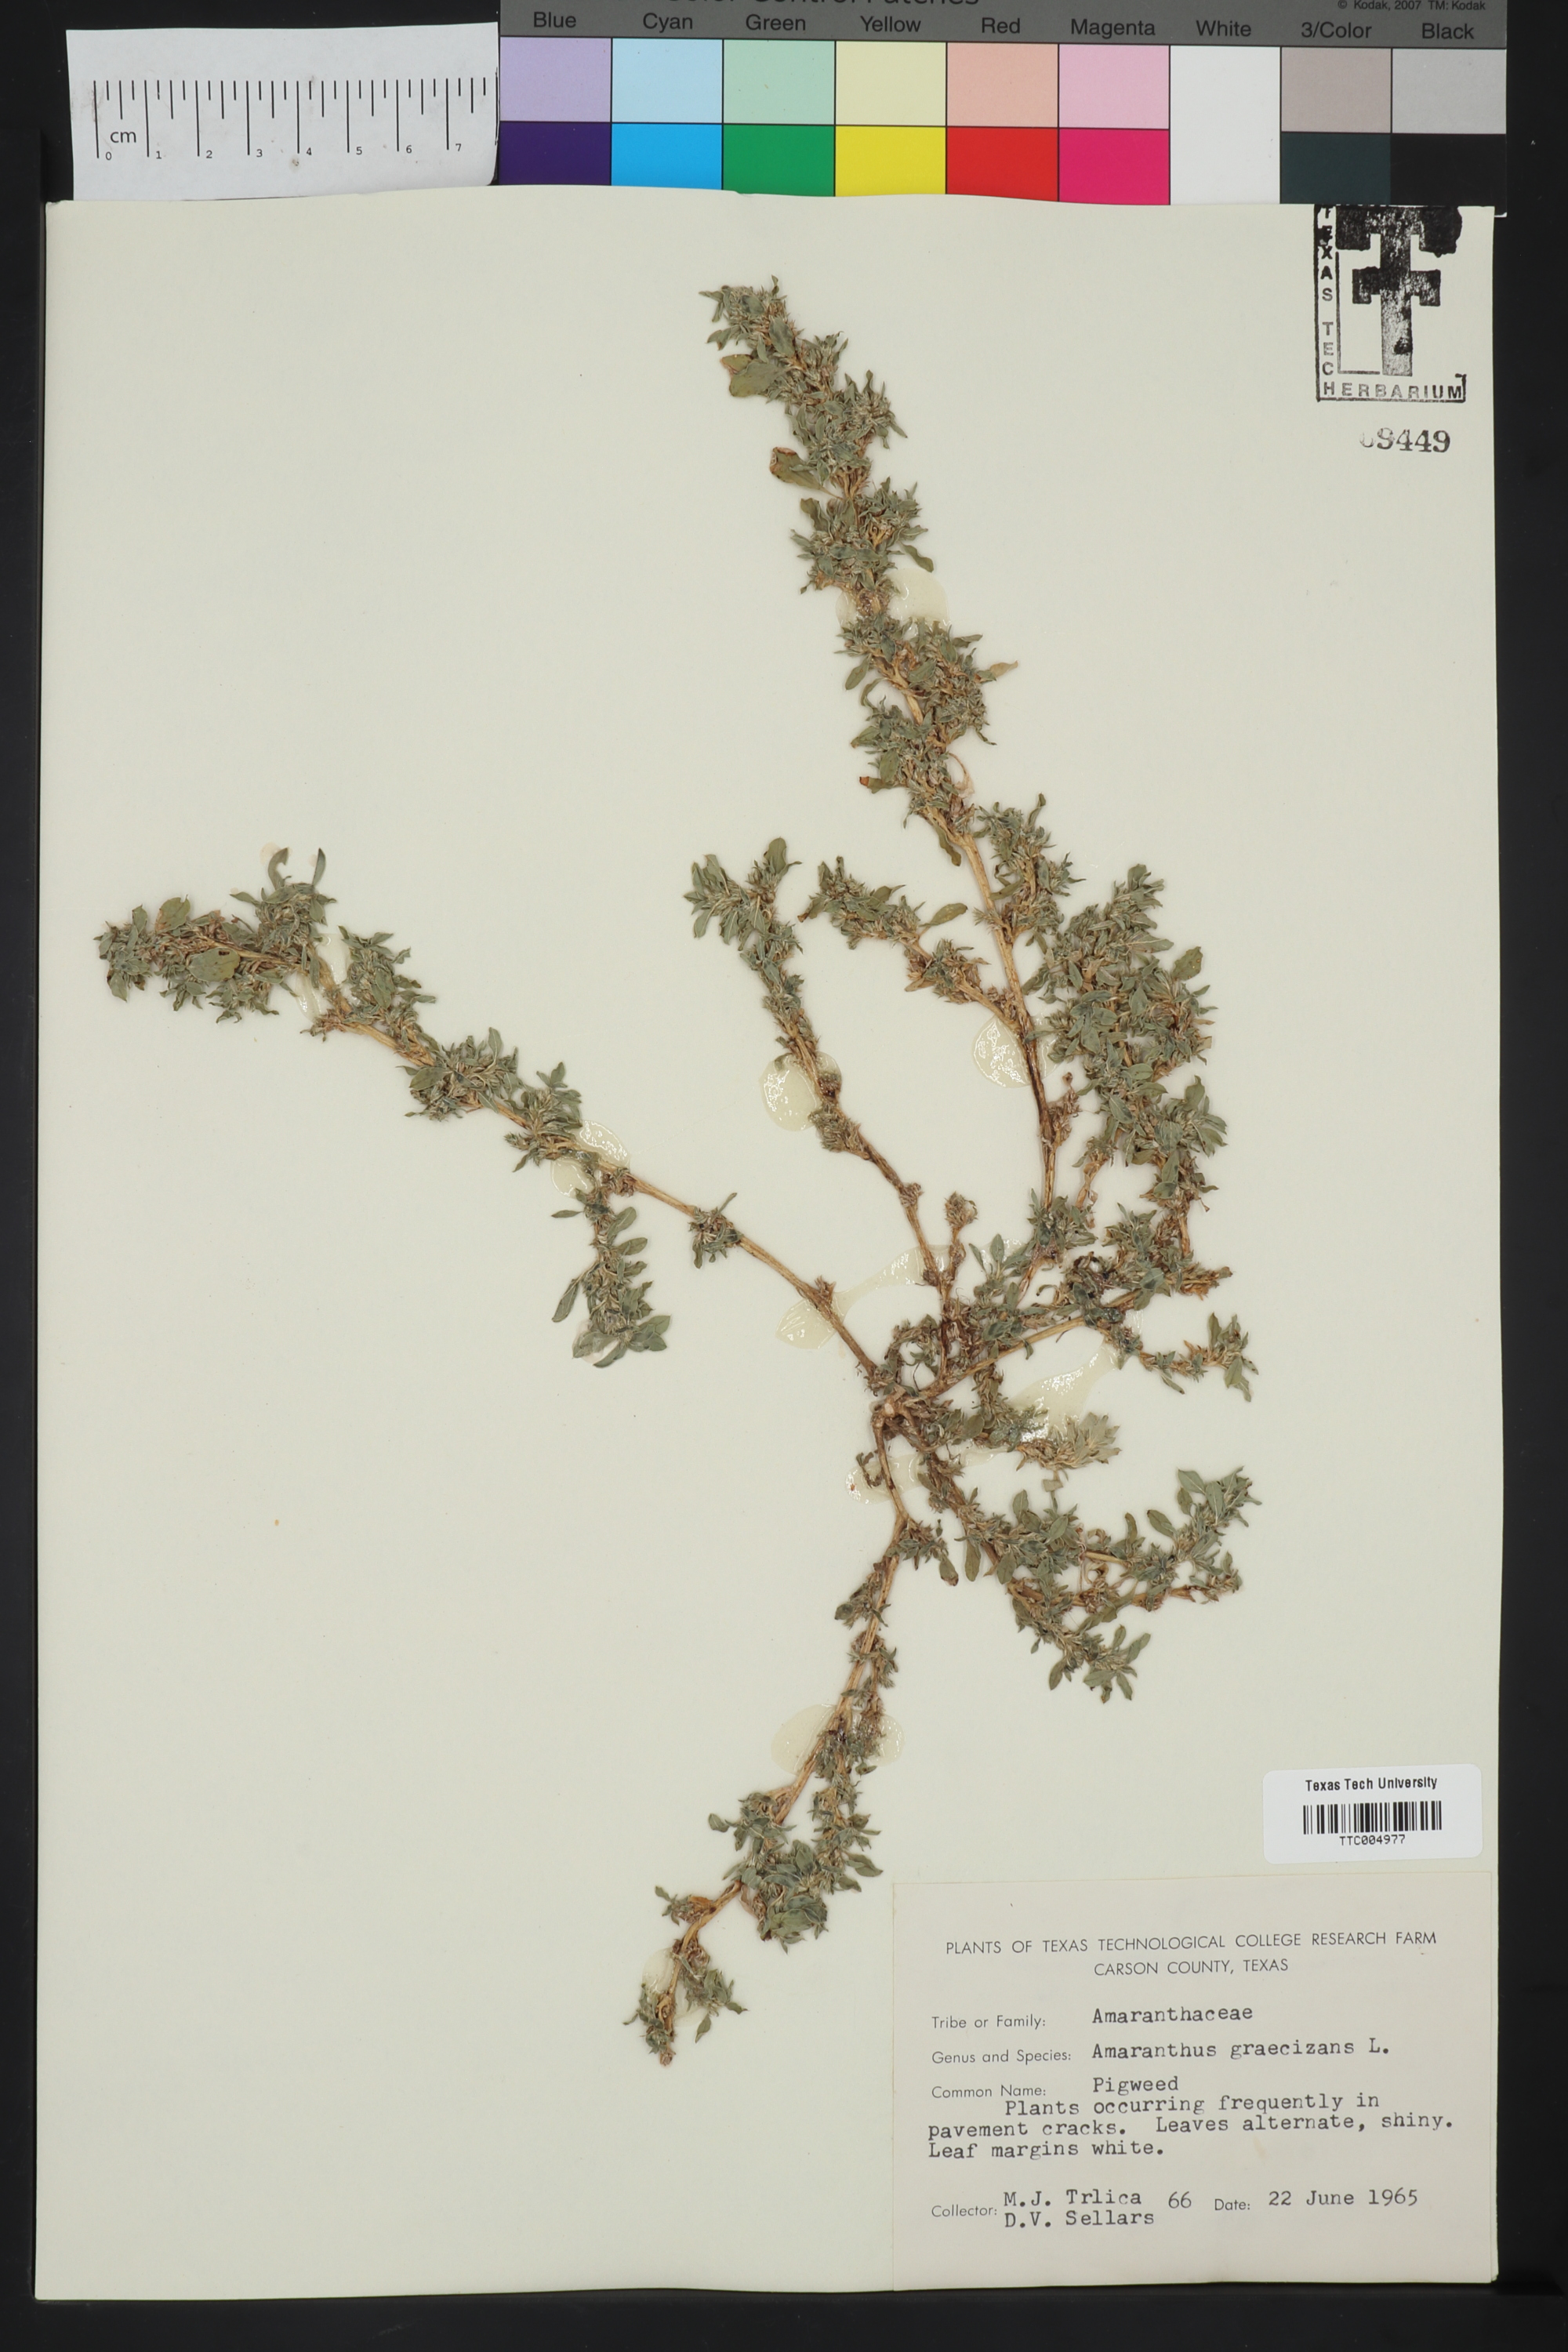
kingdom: Plantae
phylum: Tracheophyta
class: Magnoliopsida
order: Caryophyllales
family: Amaranthaceae
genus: Amaranthus
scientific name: Amaranthus graecizans
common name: Mediterranean amaranth
